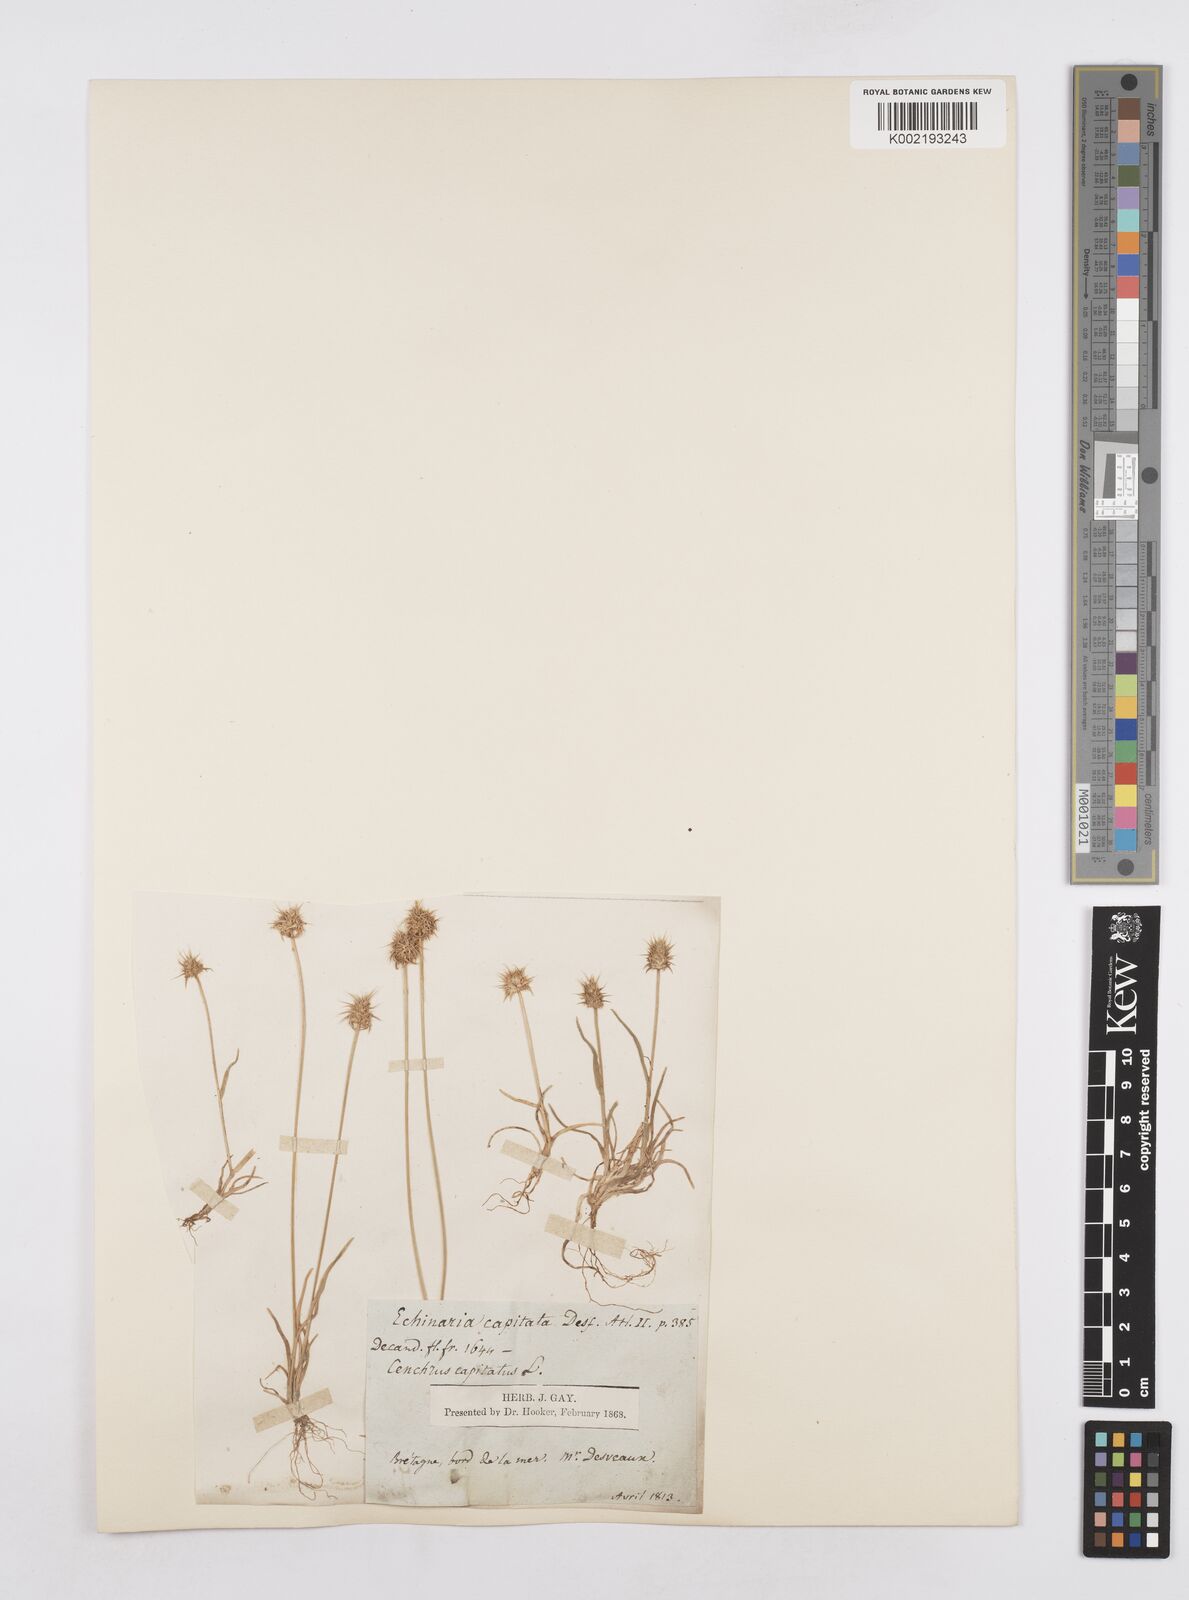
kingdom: Plantae
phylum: Tracheophyta
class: Liliopsida
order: Poales
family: Poaceae
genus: Echinaria
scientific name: Echinaria capitata
